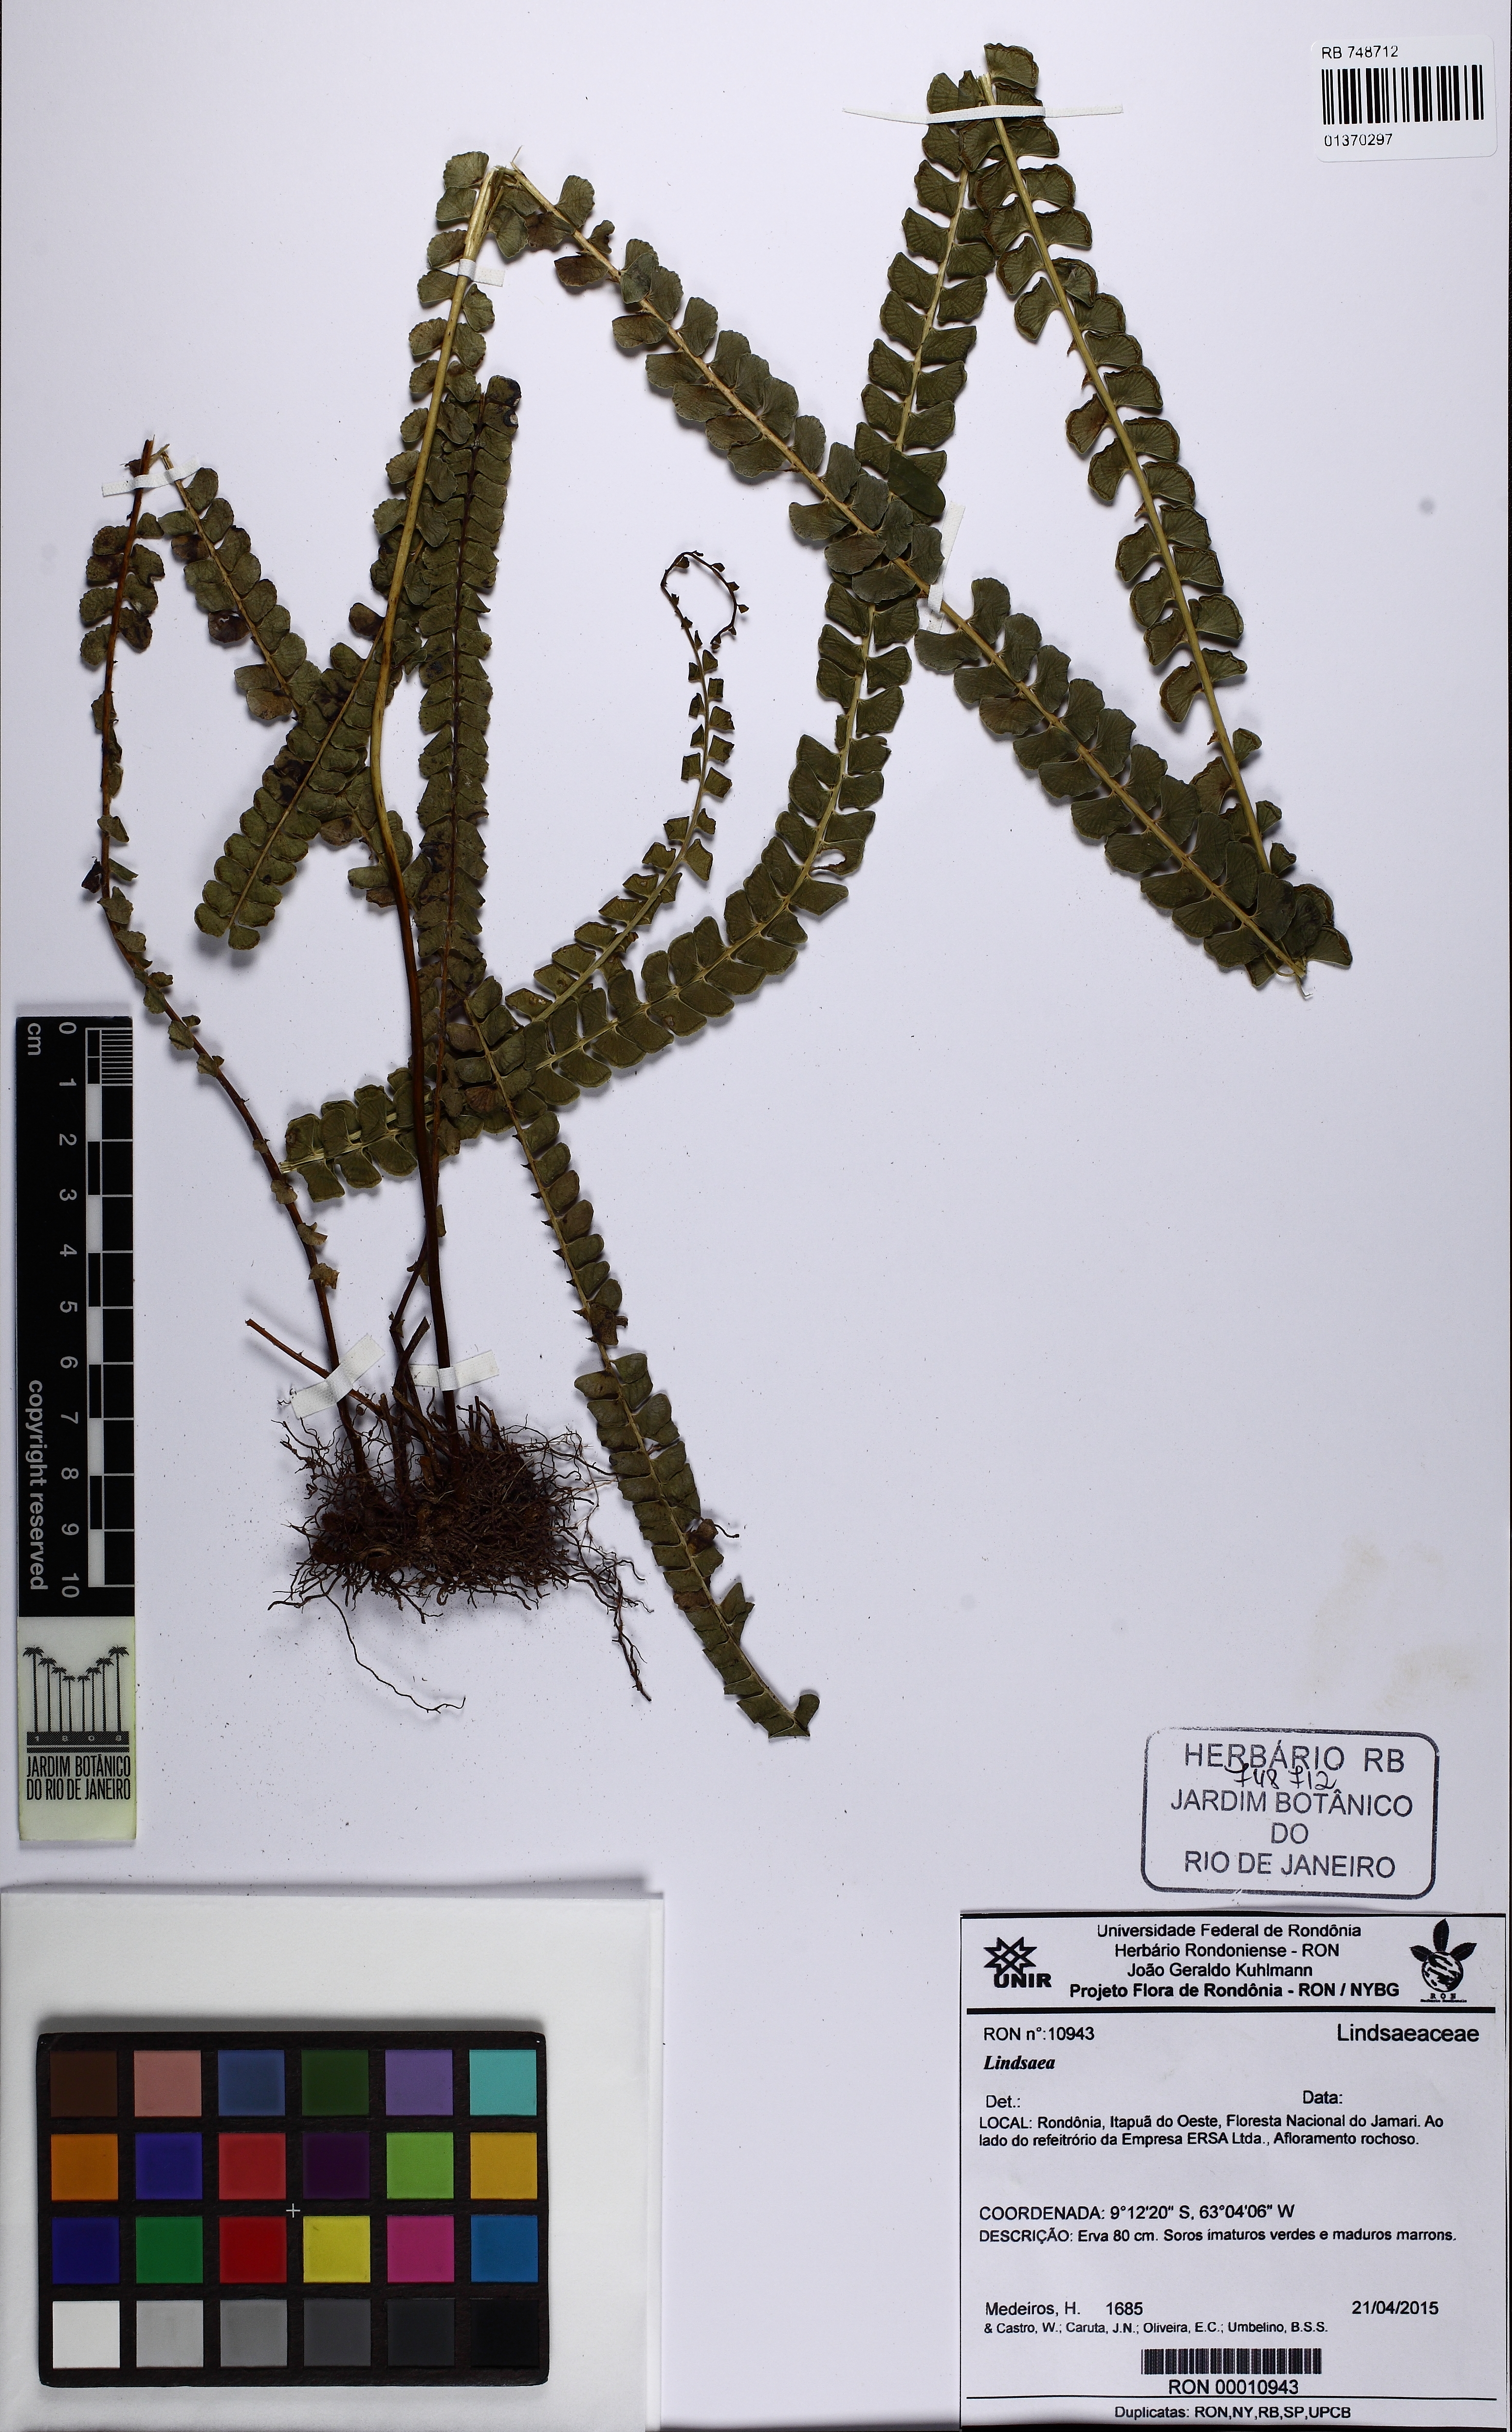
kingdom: Plantae
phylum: Tracheophyta
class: Polypodiopsida
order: Polypodiales
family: Lindsaeaceae
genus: Lindsaea
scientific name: Lindsaea
